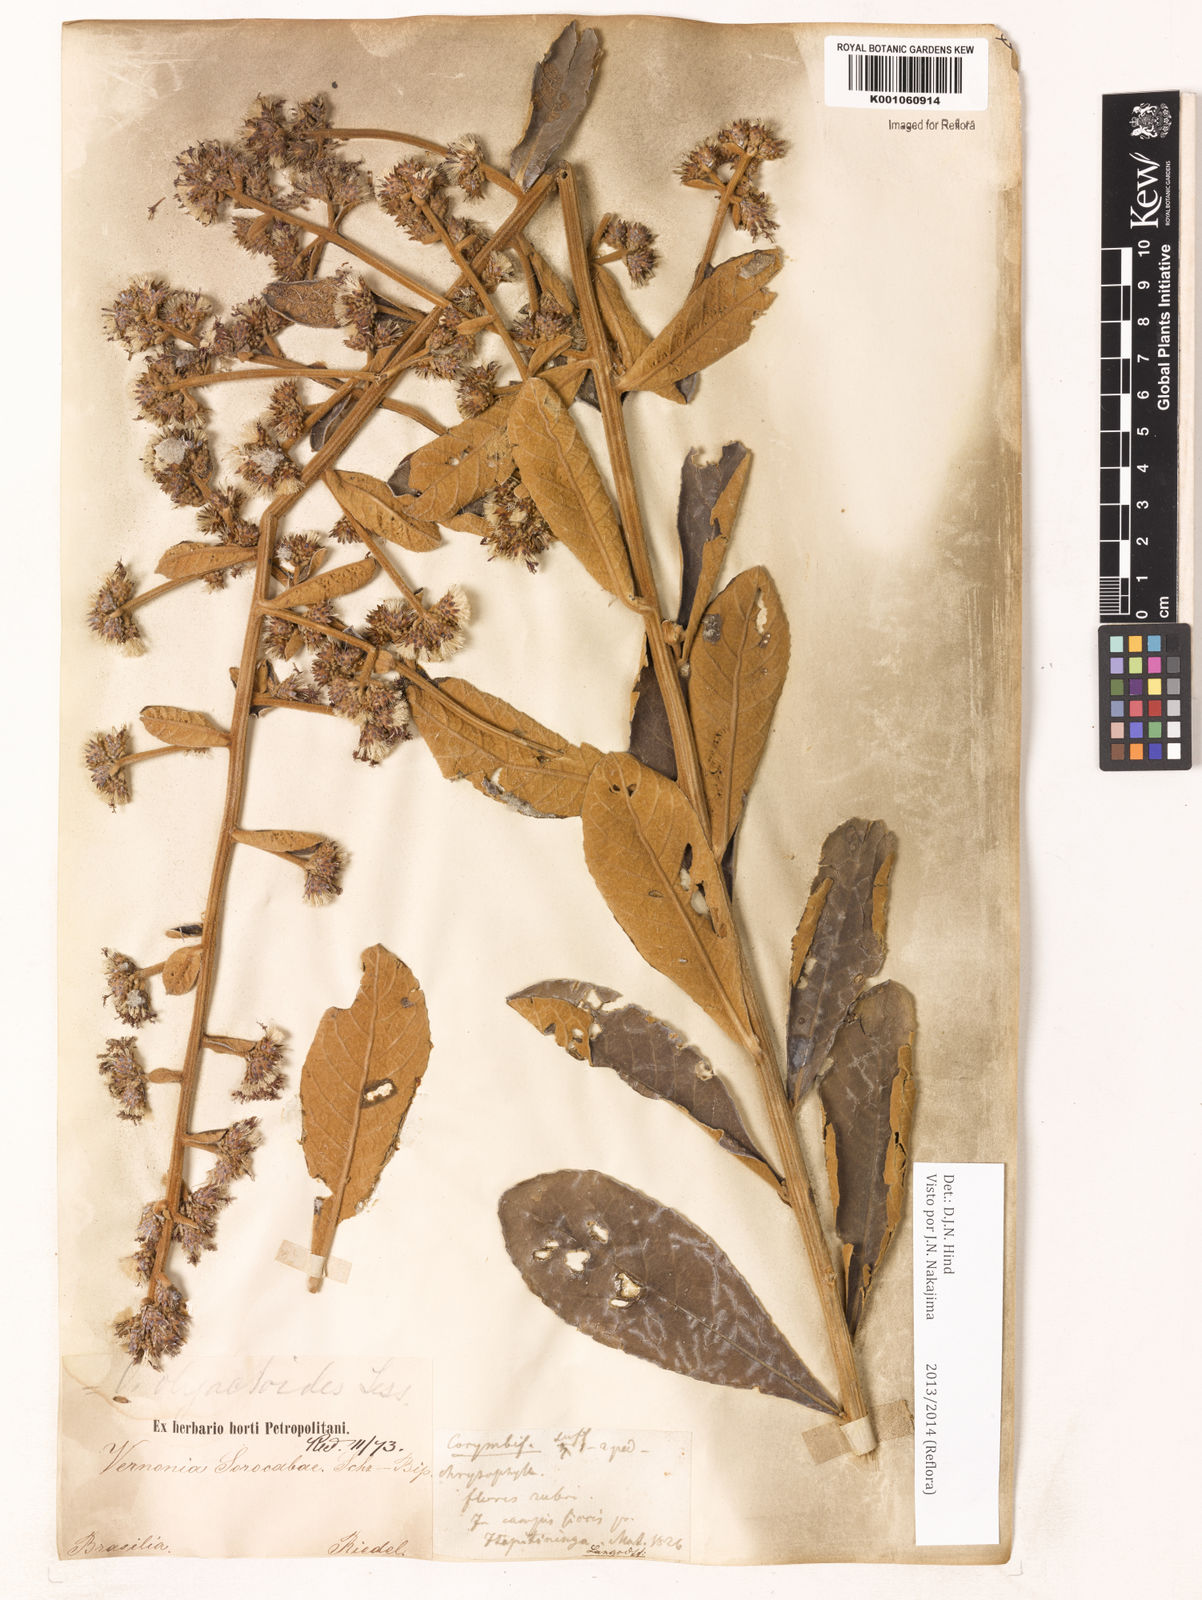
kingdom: Plantae
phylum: Tracheophyta
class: Magnoliopsida
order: Asterales
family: Asteraceae
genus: Vernonanthura
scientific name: Vernonanthura oligactoides
